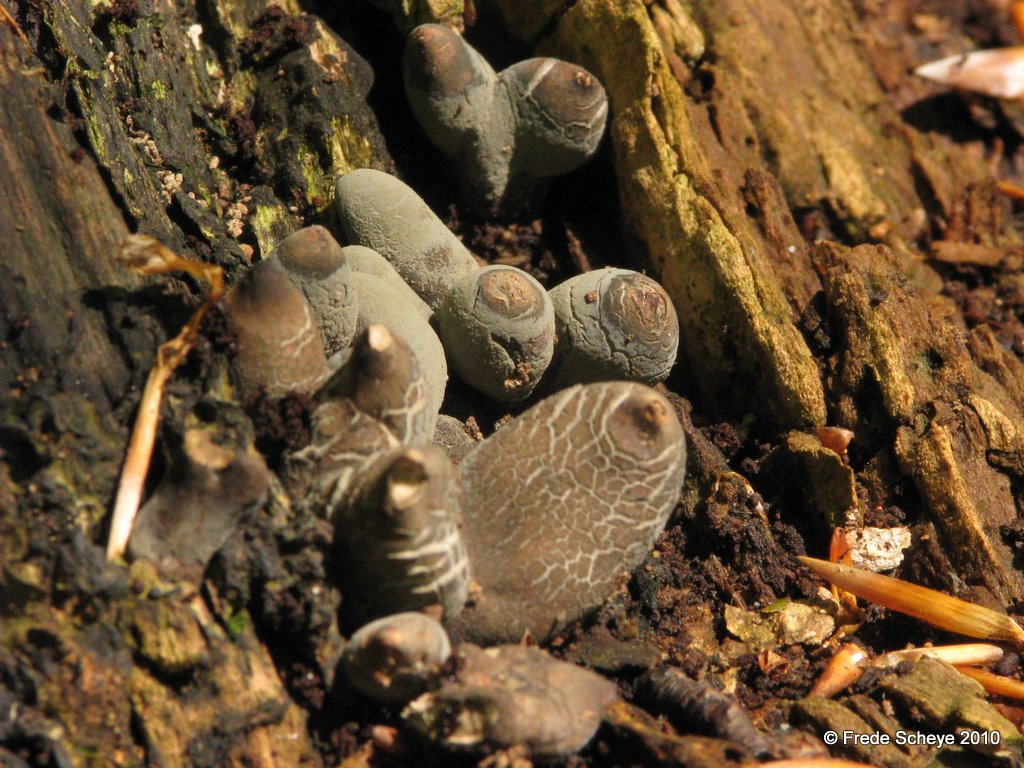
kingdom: Fungi
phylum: Ascomycota
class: Sordariomycetes
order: Xylariales
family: Xylariaceae
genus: Xylaria
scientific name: Xylaria polymorpha
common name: kølle-stødsvamp
